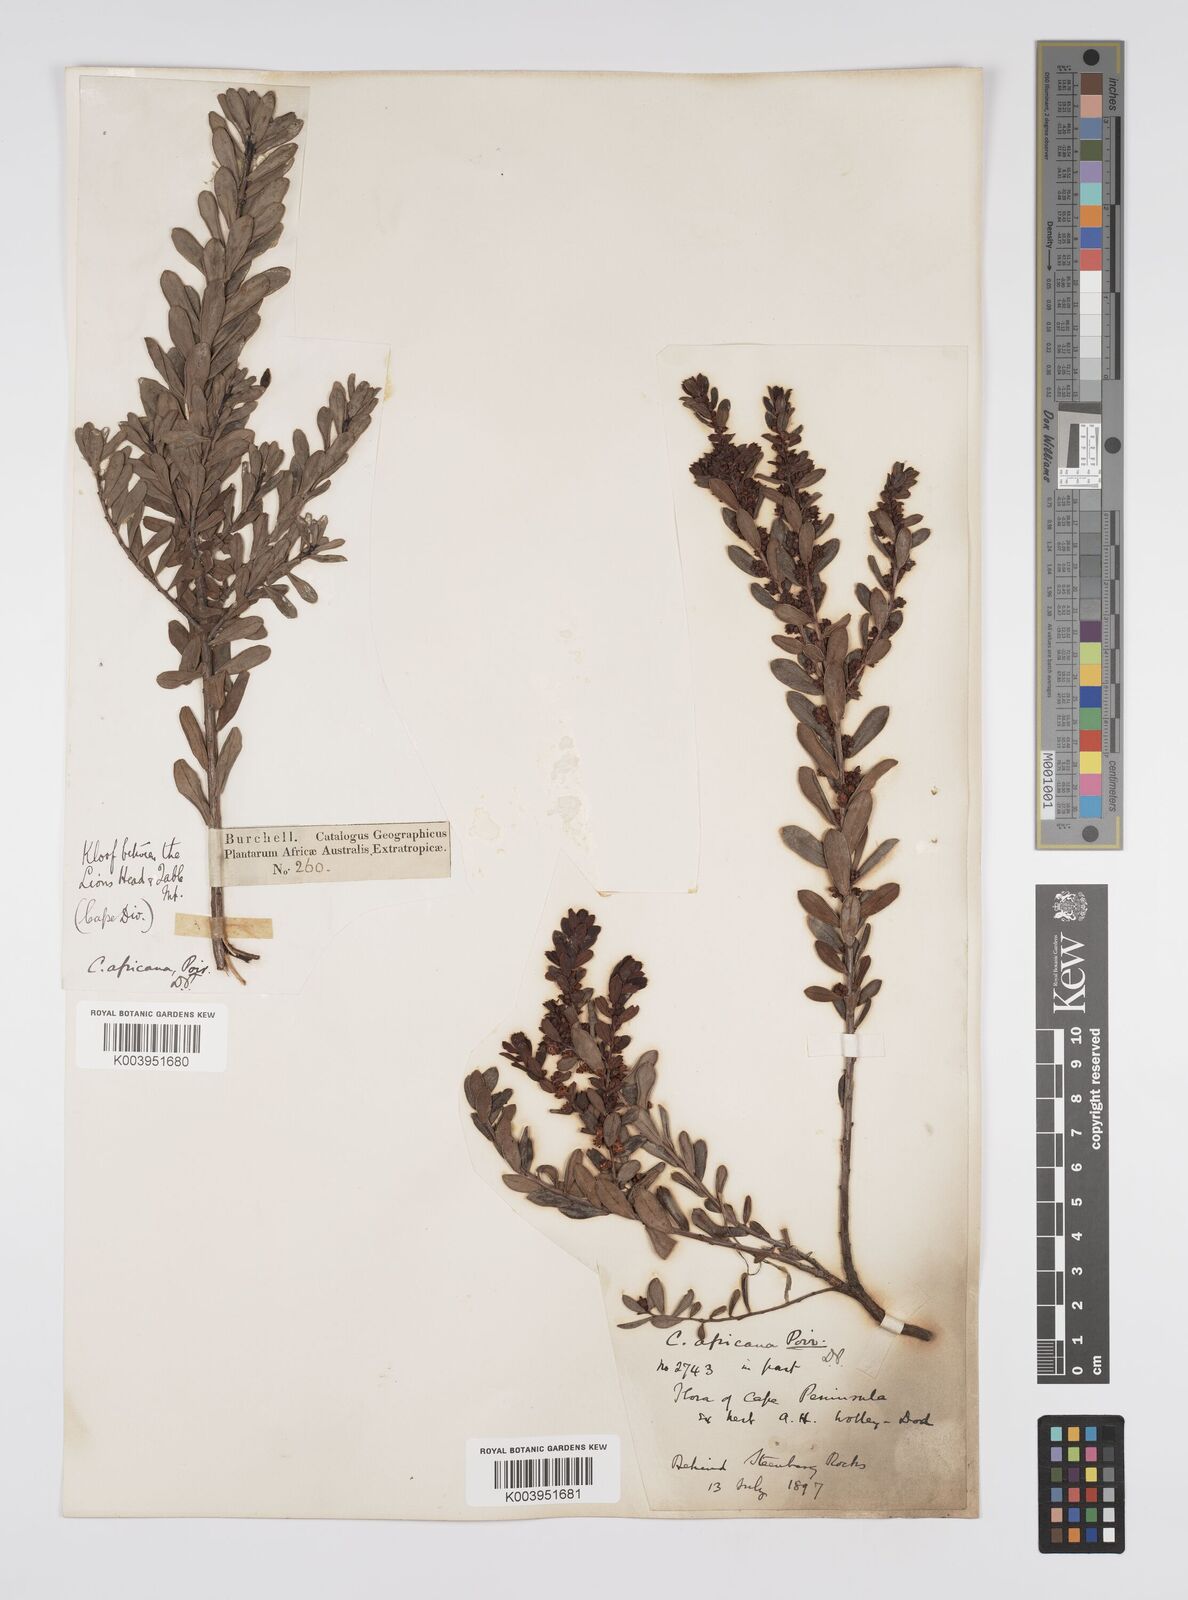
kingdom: Plantae
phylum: Tracheophyta
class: Magnoliopsida
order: Malpighiales
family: Peraceae
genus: Clutia
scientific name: Clutia africana
